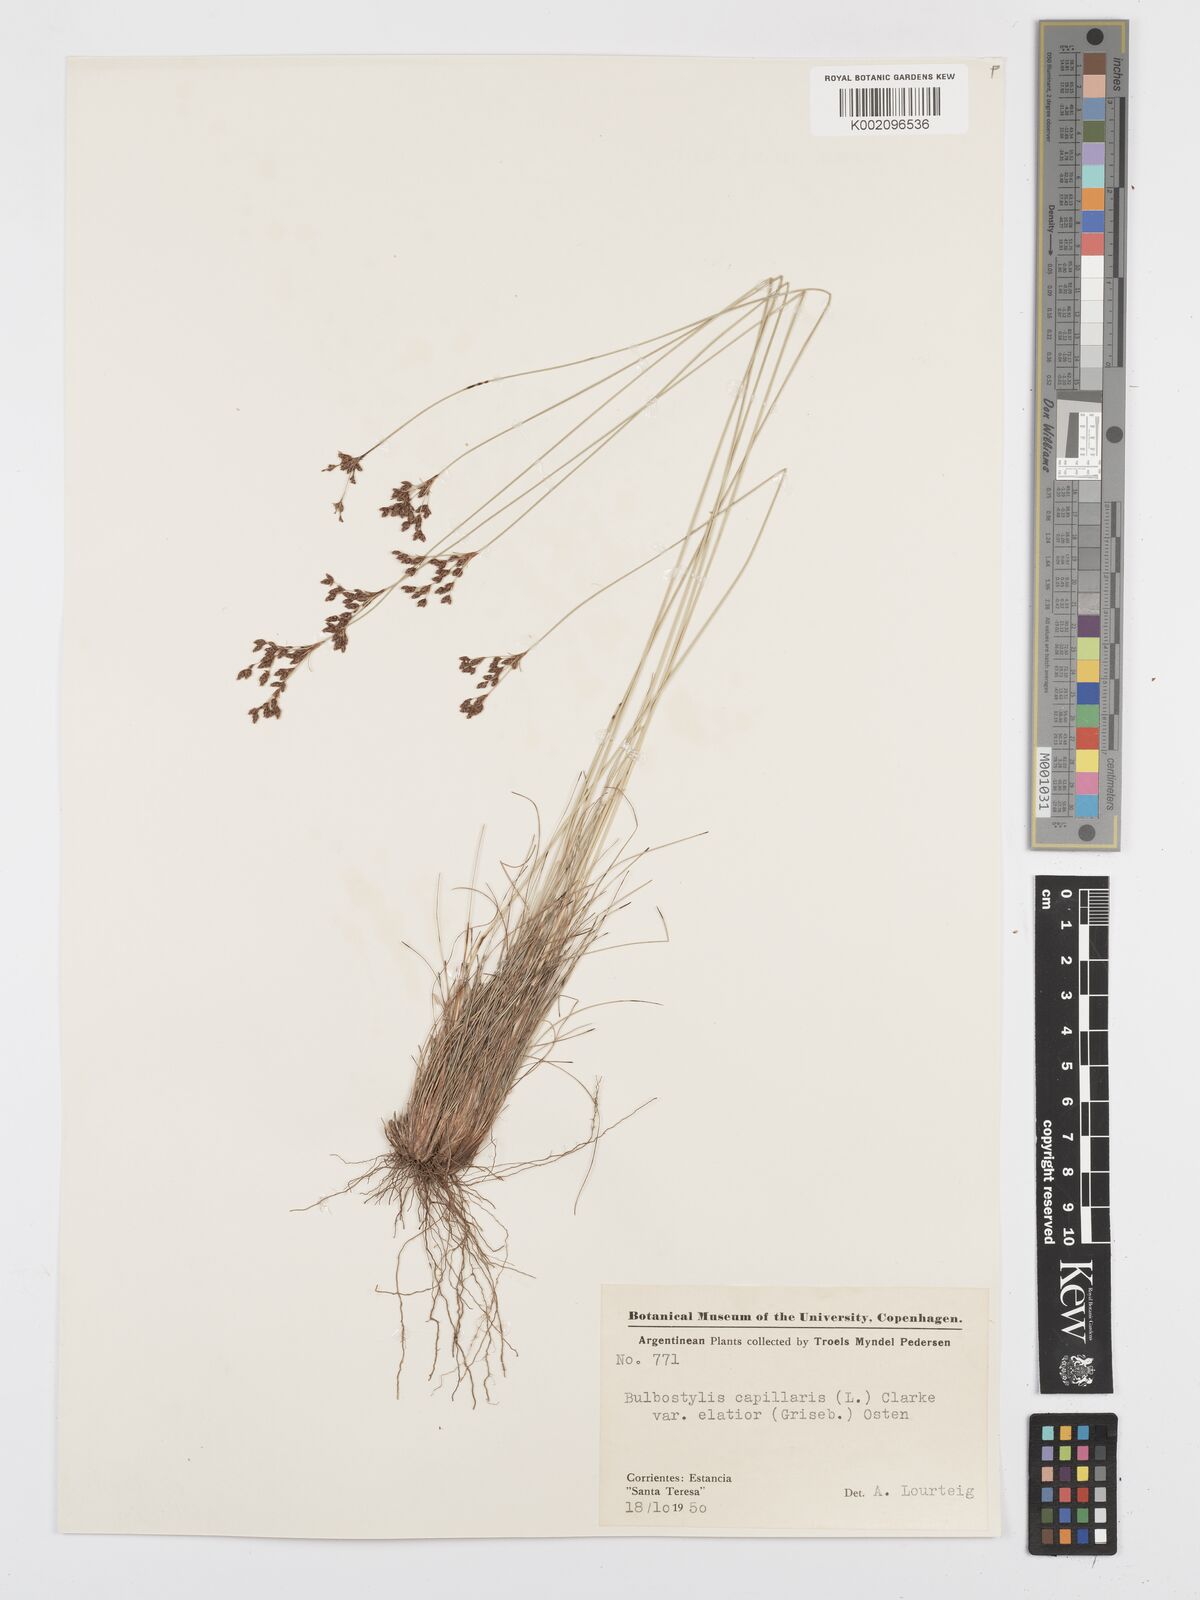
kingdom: Plantae
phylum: Tracheophyta
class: Liliopsida
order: Poales
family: Cyperaceae
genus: Bulbostylis
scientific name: Bulbostylis capillaris
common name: Densetuft hairsedge
